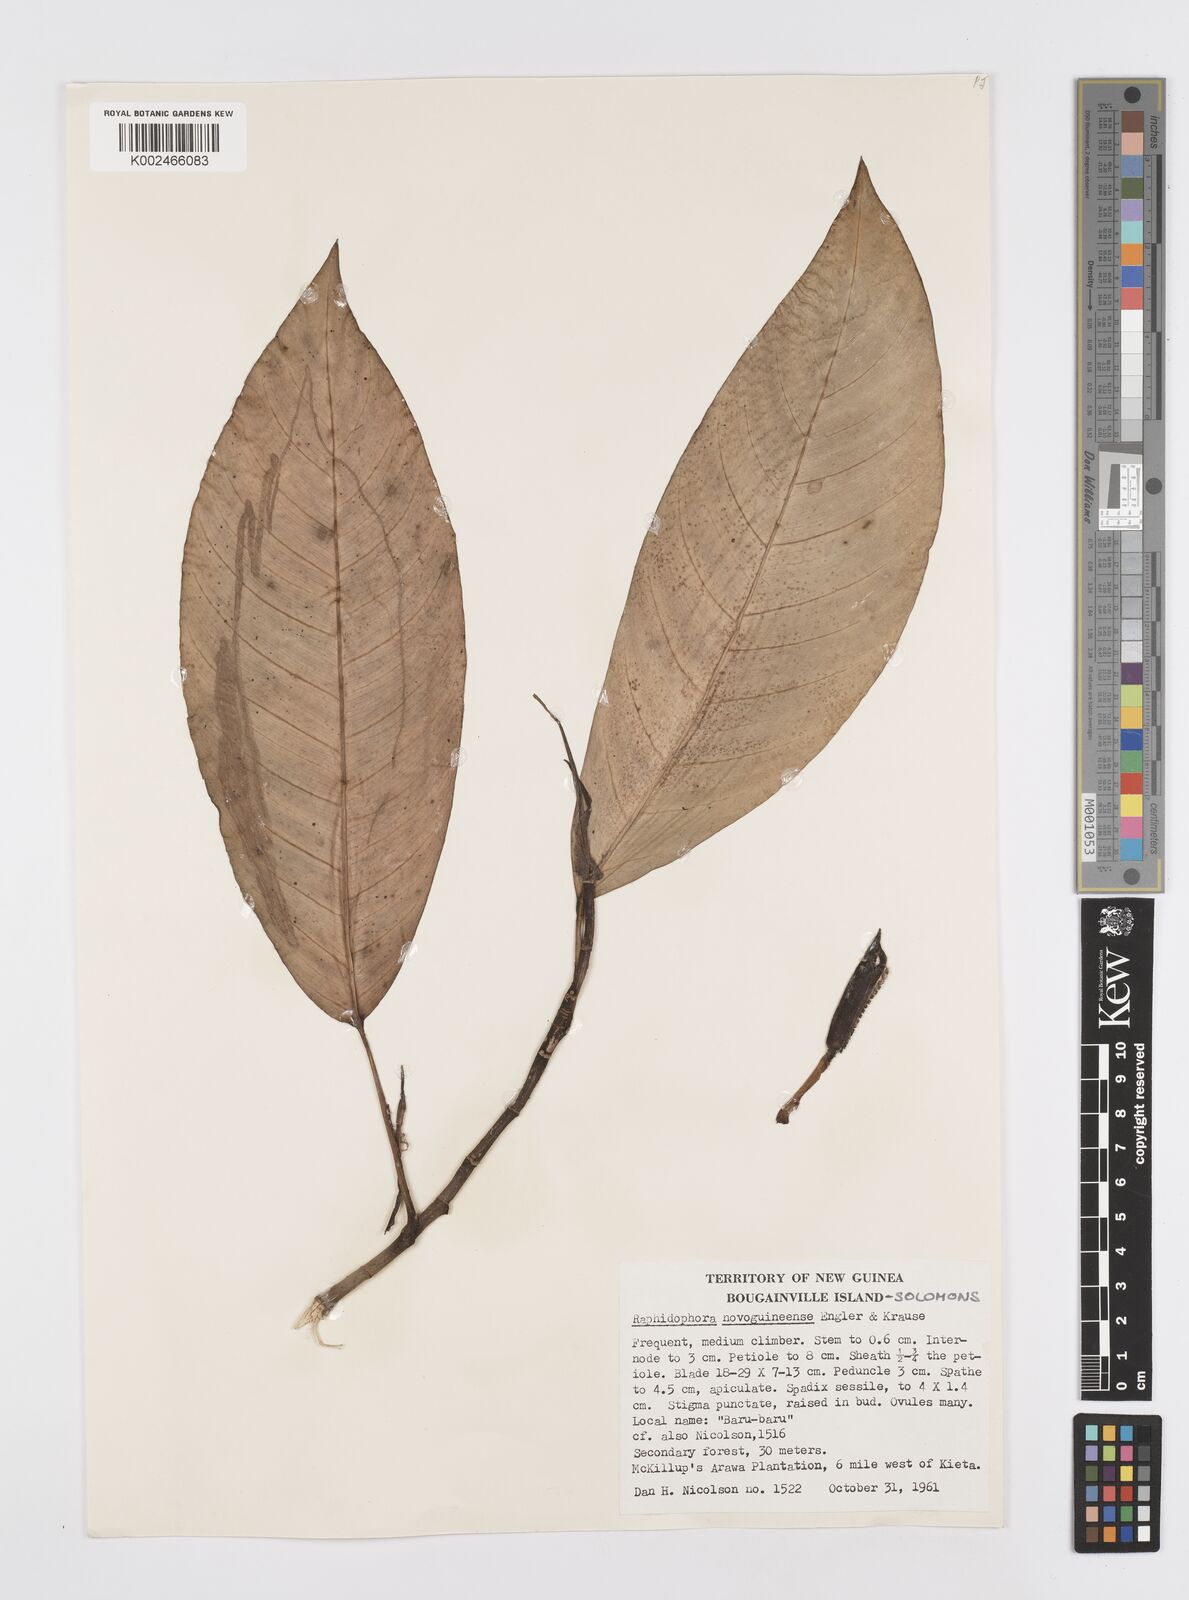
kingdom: Plantae
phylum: Tracheophyta
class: Liliopsida
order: Alismatales
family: Araceae
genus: Rhaphidophora
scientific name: Rhaphidophora mima
